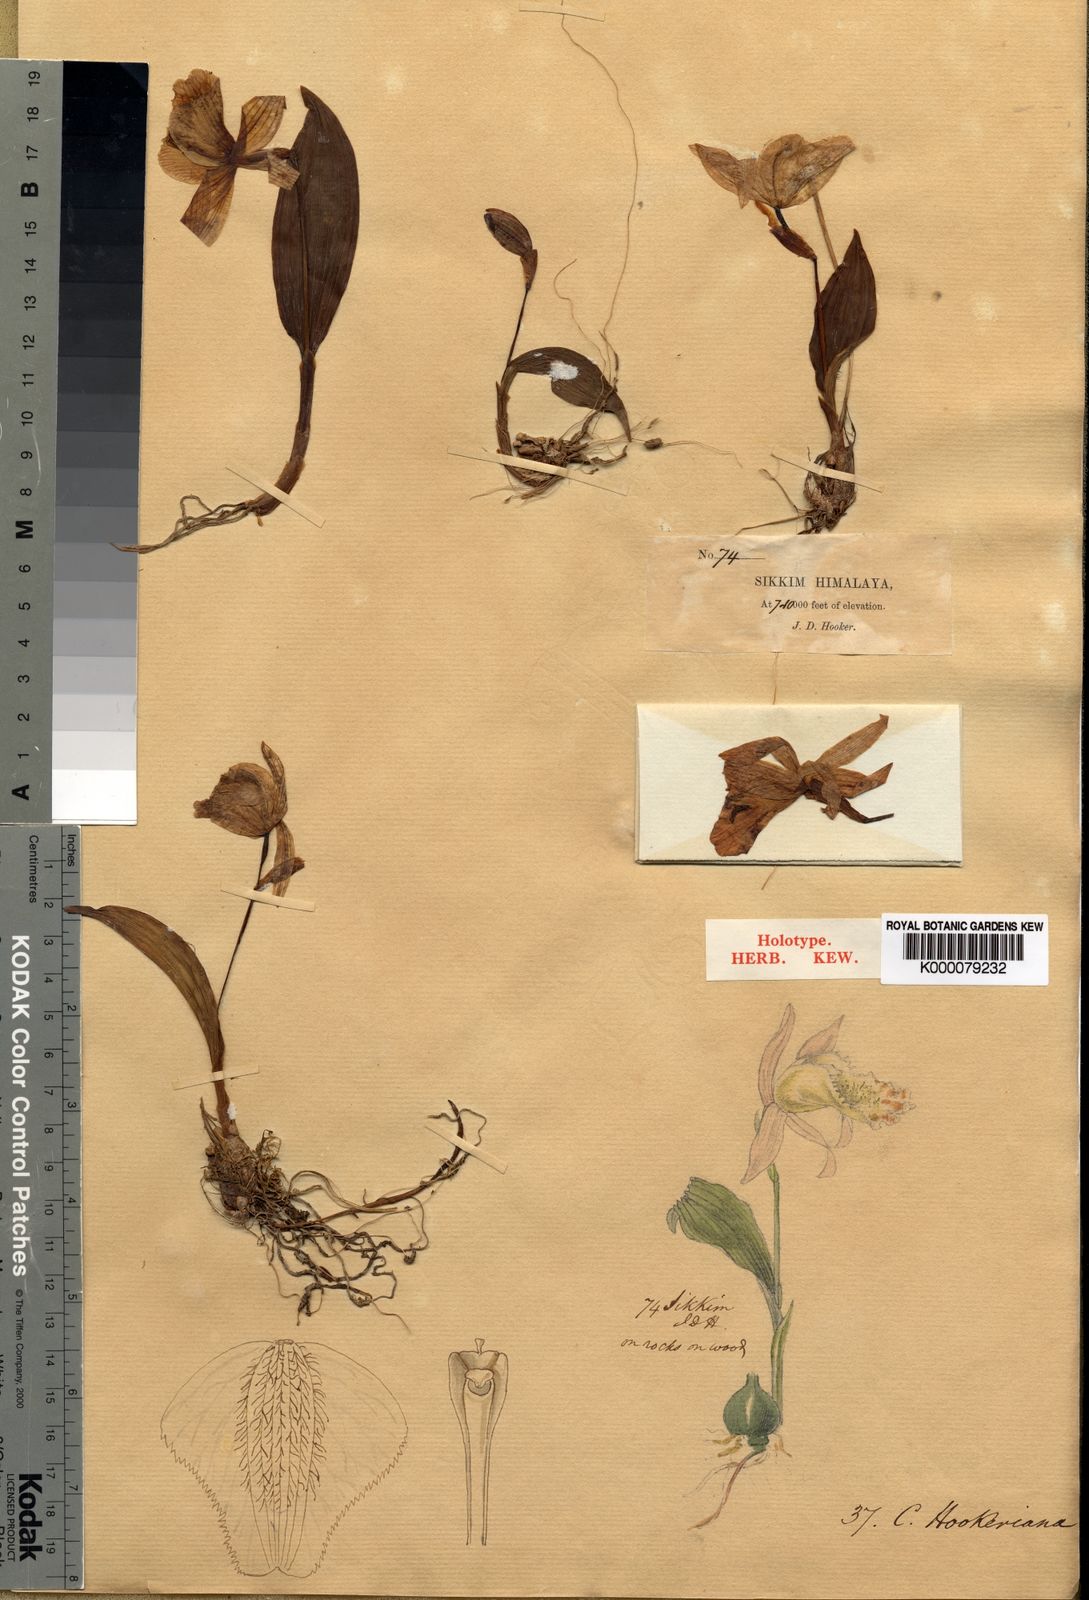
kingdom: Plantae
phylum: Tracheophyta
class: Liliopsida
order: Asparagales
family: Orchidaceae
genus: Pleione
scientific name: Pleione
